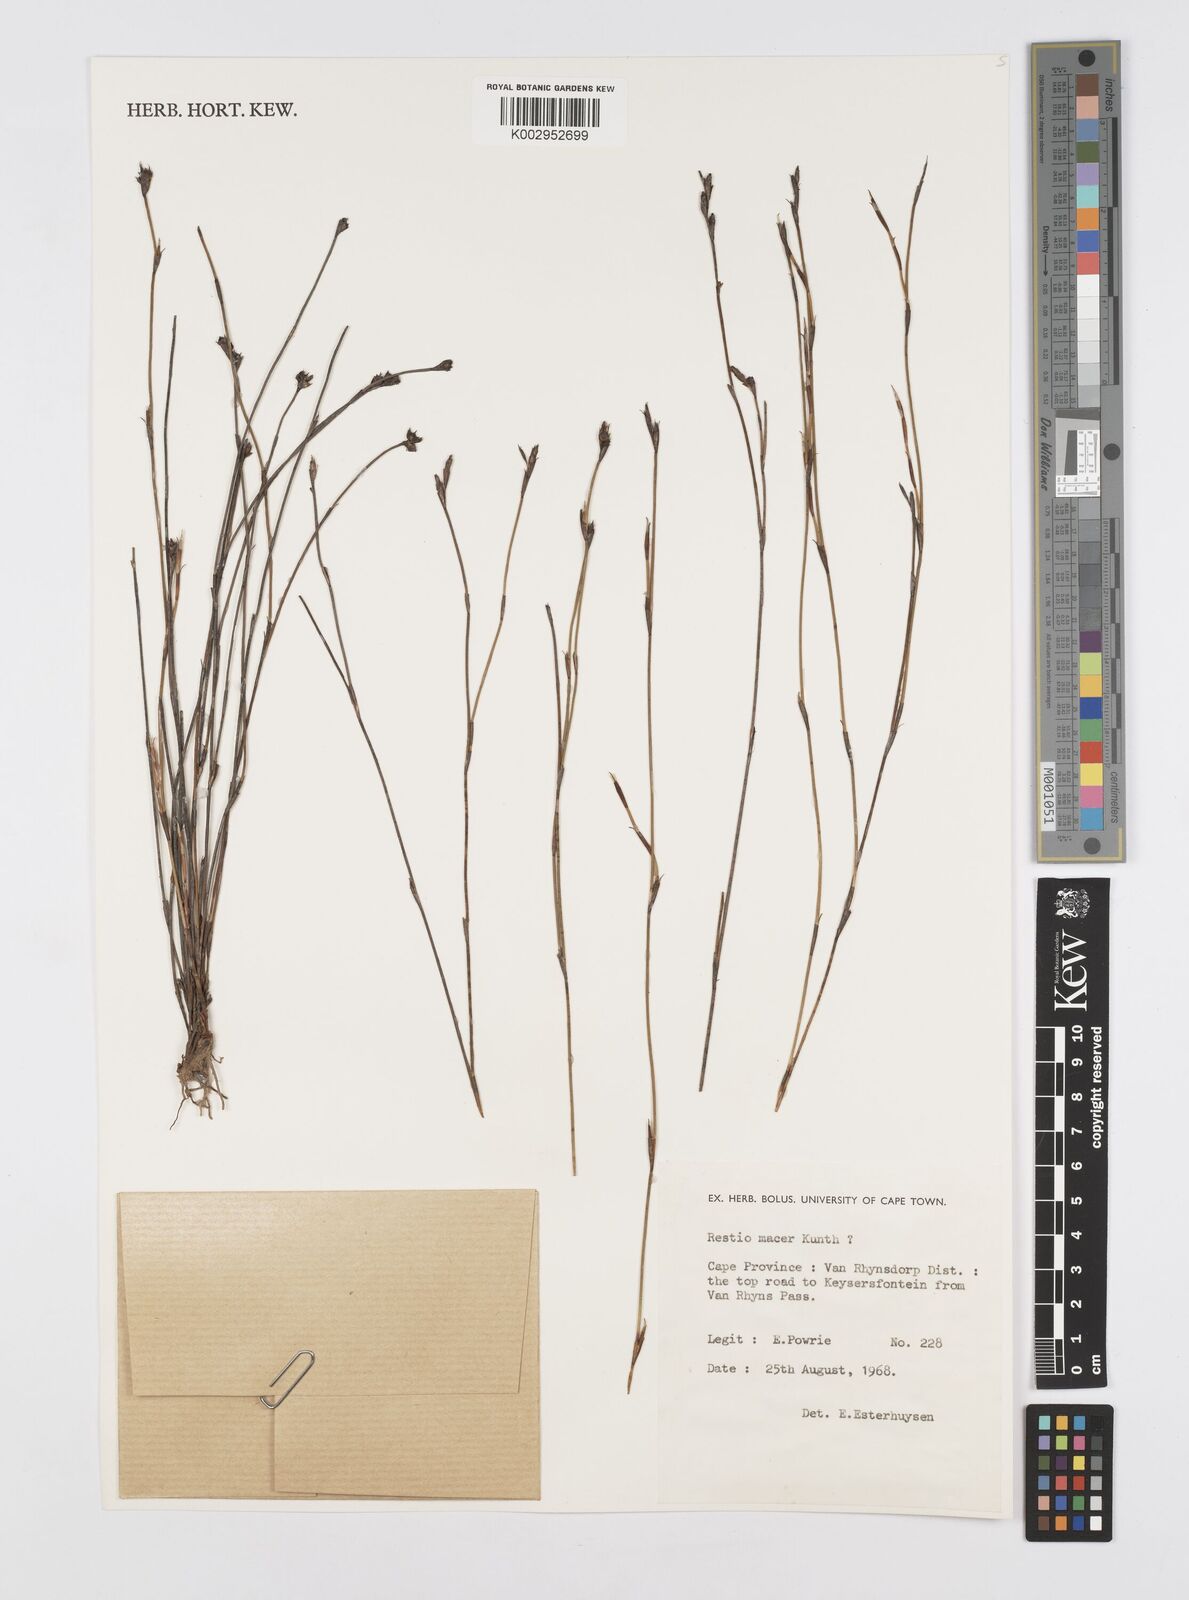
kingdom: Plantae
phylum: Tracheophyta
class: Liliopsida
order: Poales
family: Restionaceae
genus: Restio
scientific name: Restio macer
